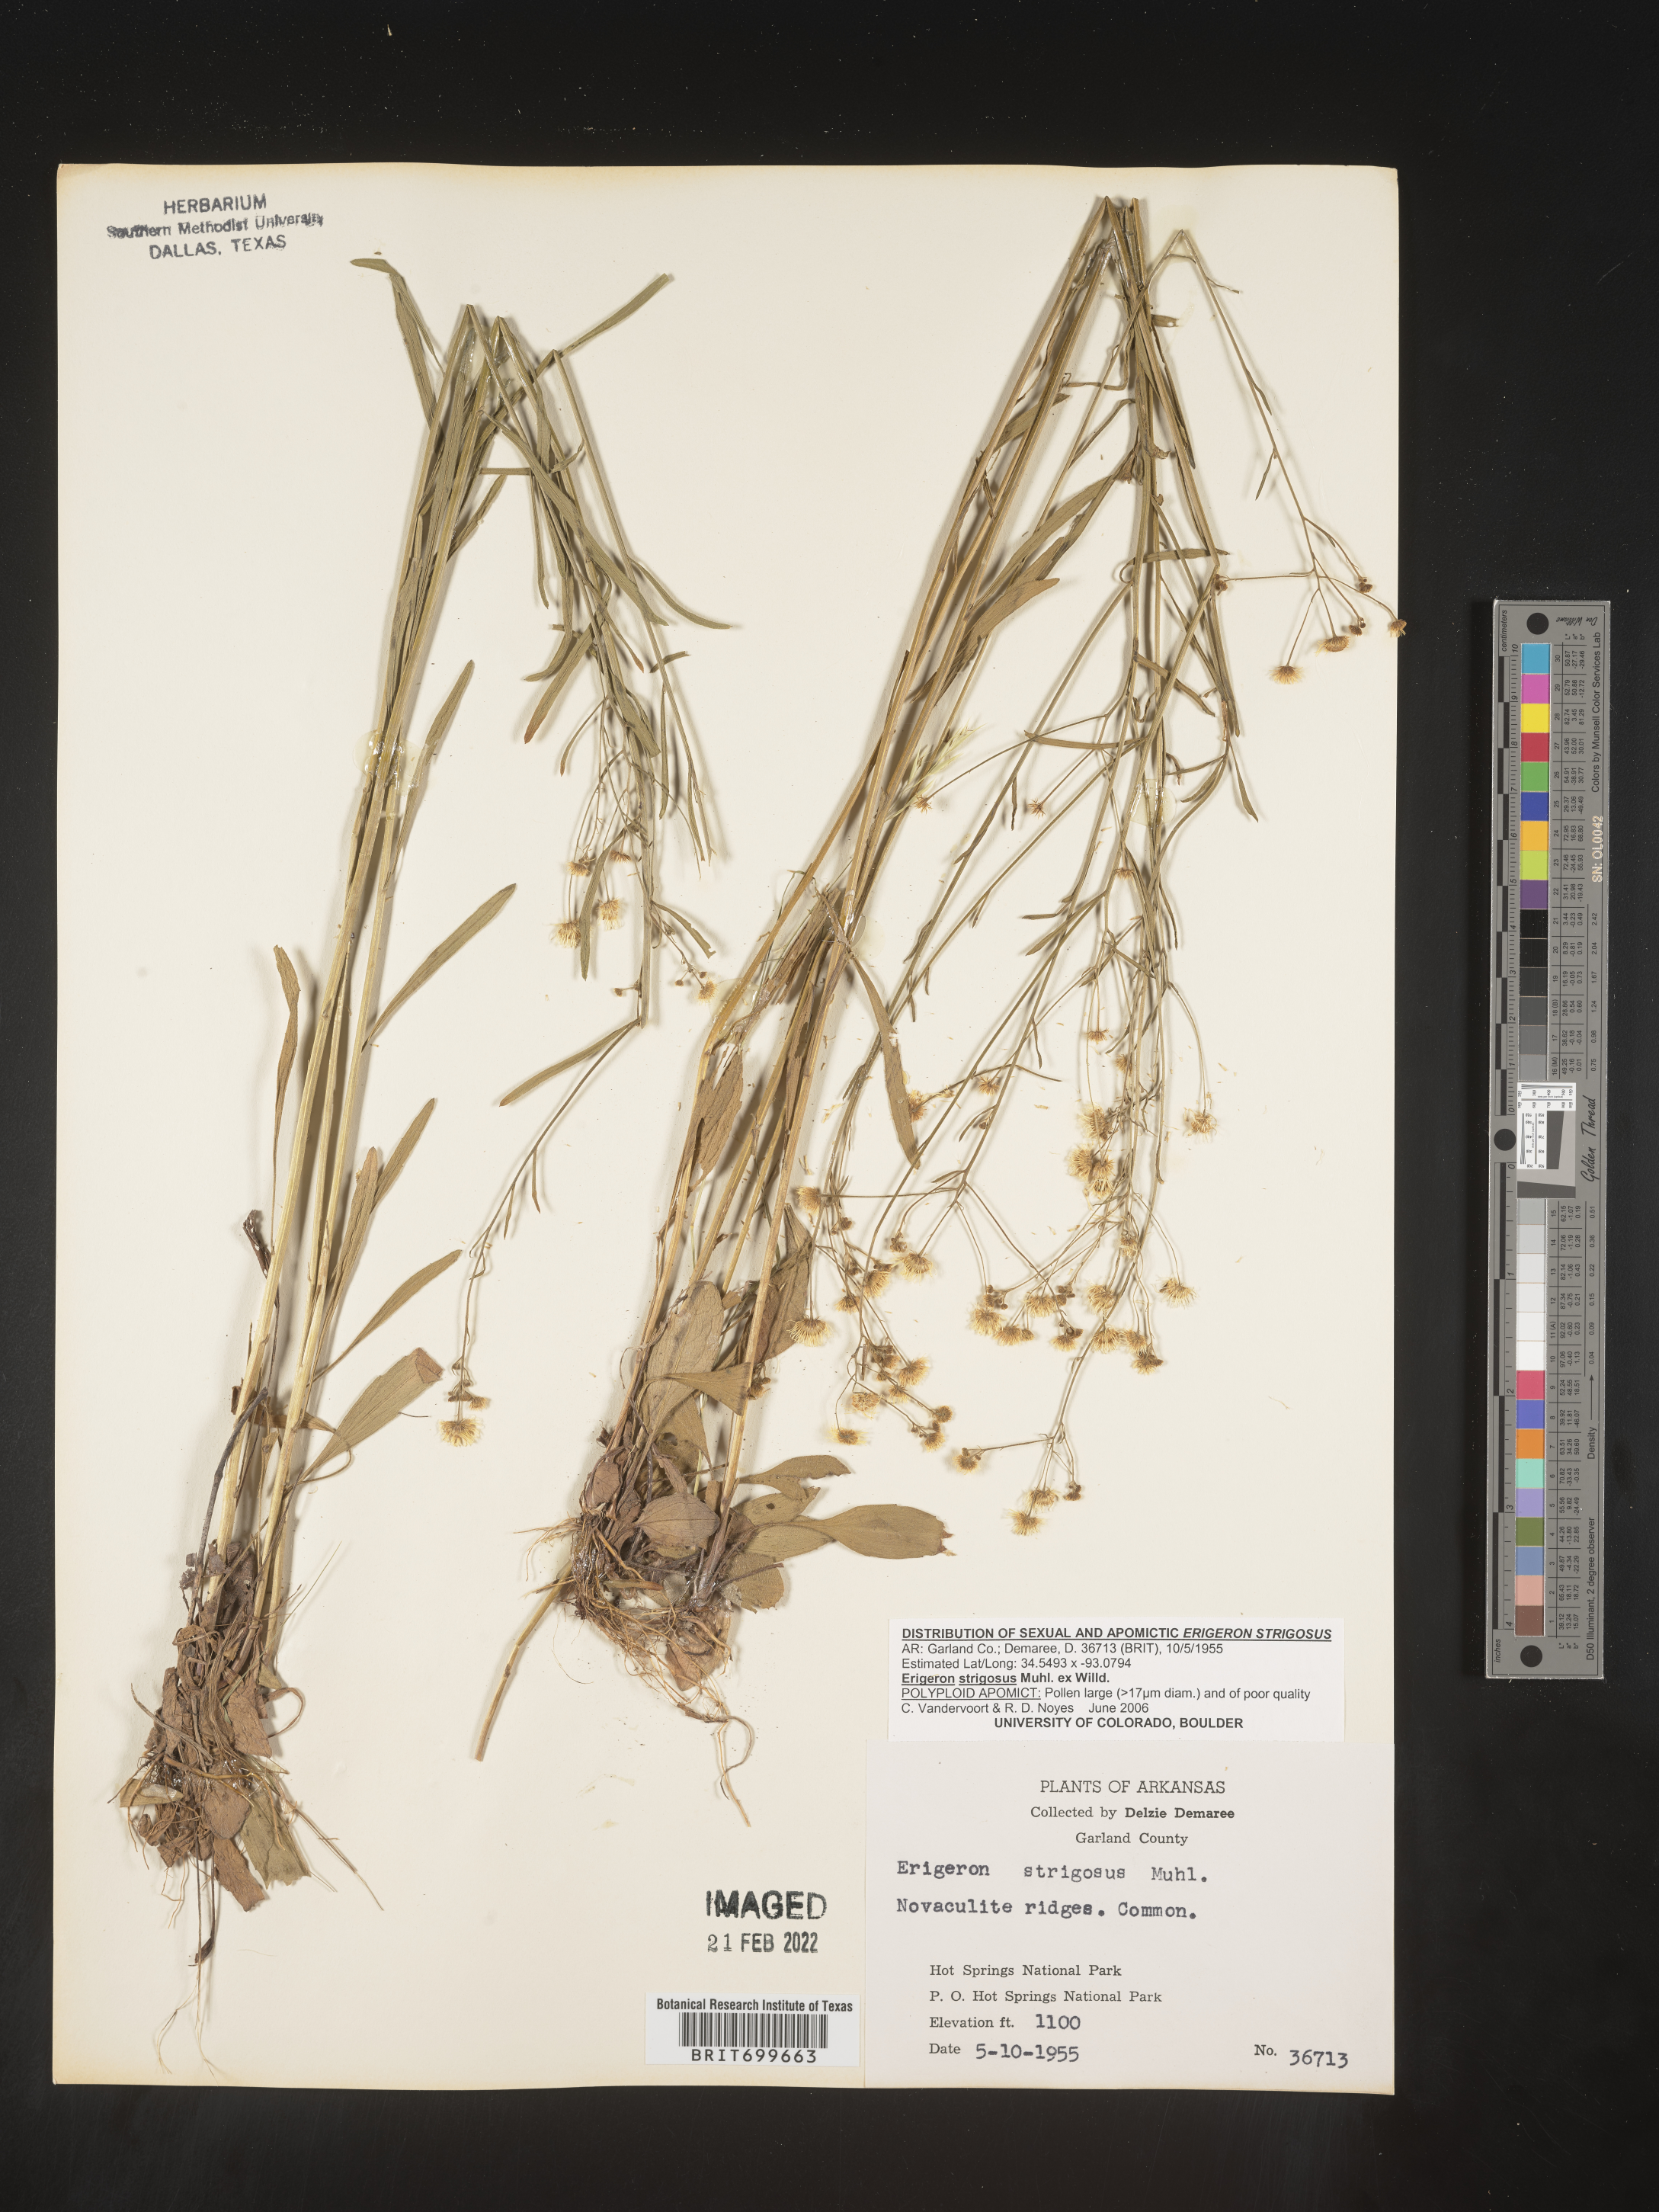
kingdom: Plantae
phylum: Tracheophyta
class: Magnoliopsida
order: Asterales
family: Asteraceae
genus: Erigeron
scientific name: Erigeron strigosus
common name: Common eastern fleabane
